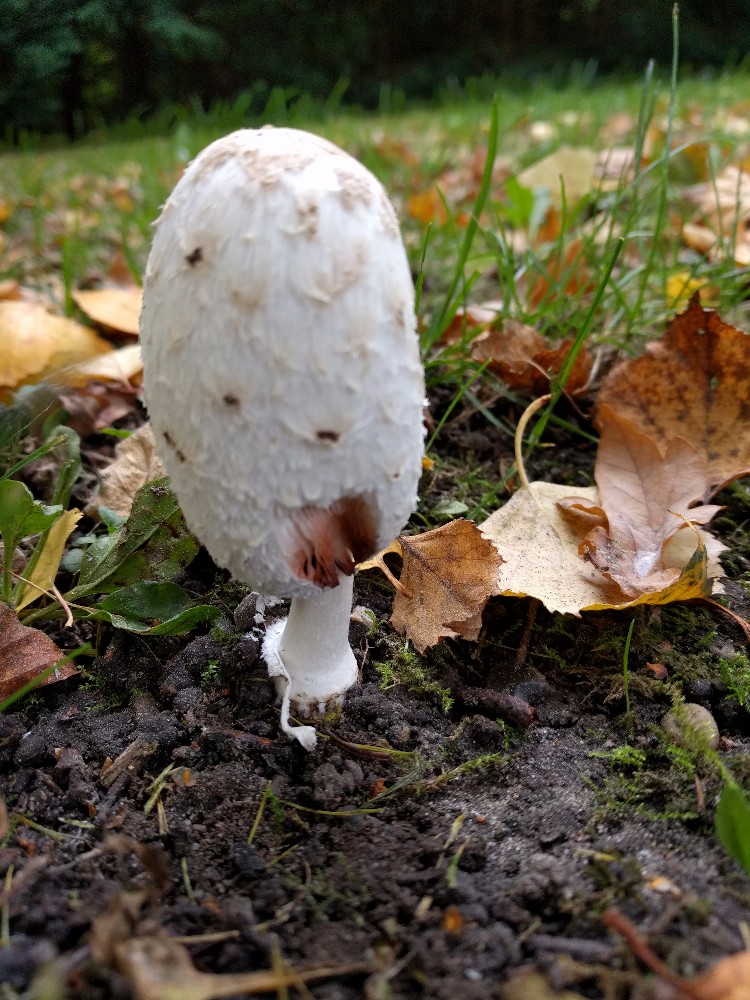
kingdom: Fungi
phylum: Basidiomycota
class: Agaricomycetes
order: Agaricales
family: Agaricaceae
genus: Coprinus
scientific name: Coprinus comatus
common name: stor parykhat
